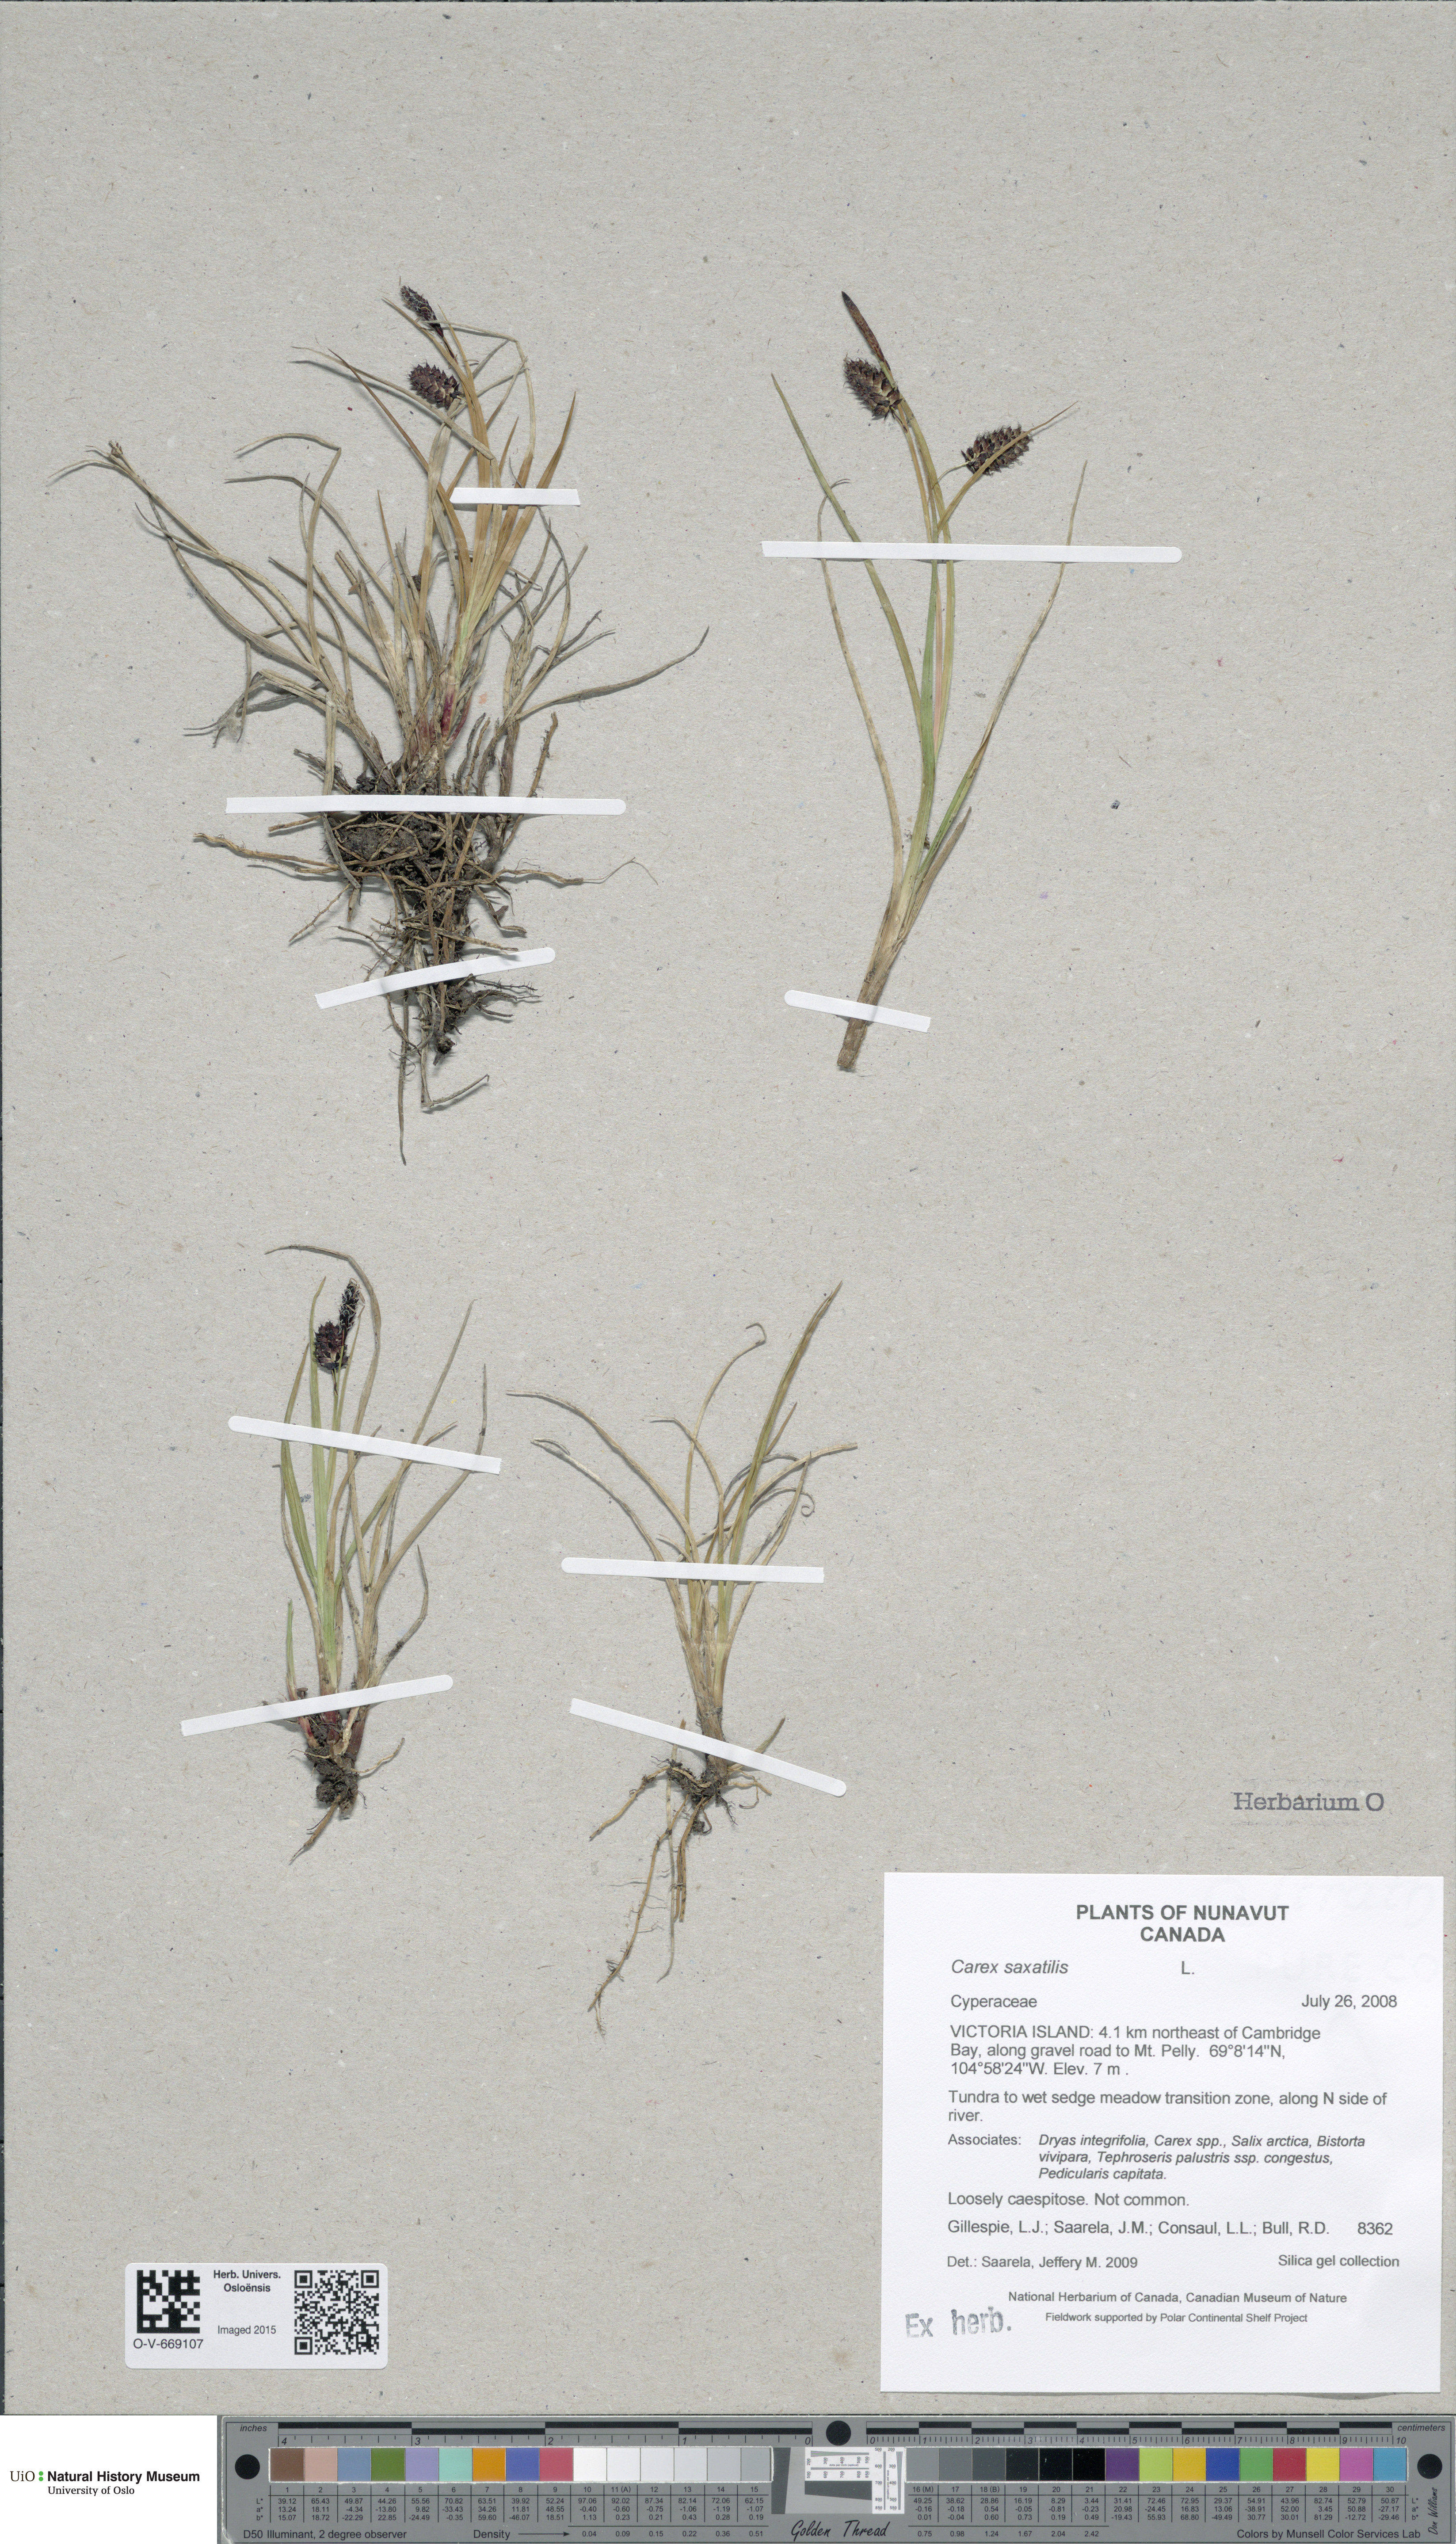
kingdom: Plantae
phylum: Tracheophyta
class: Liliopsida
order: Poales
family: Cyperaceae
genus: Carex
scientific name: Carex saxatilis
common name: Russet sedge
